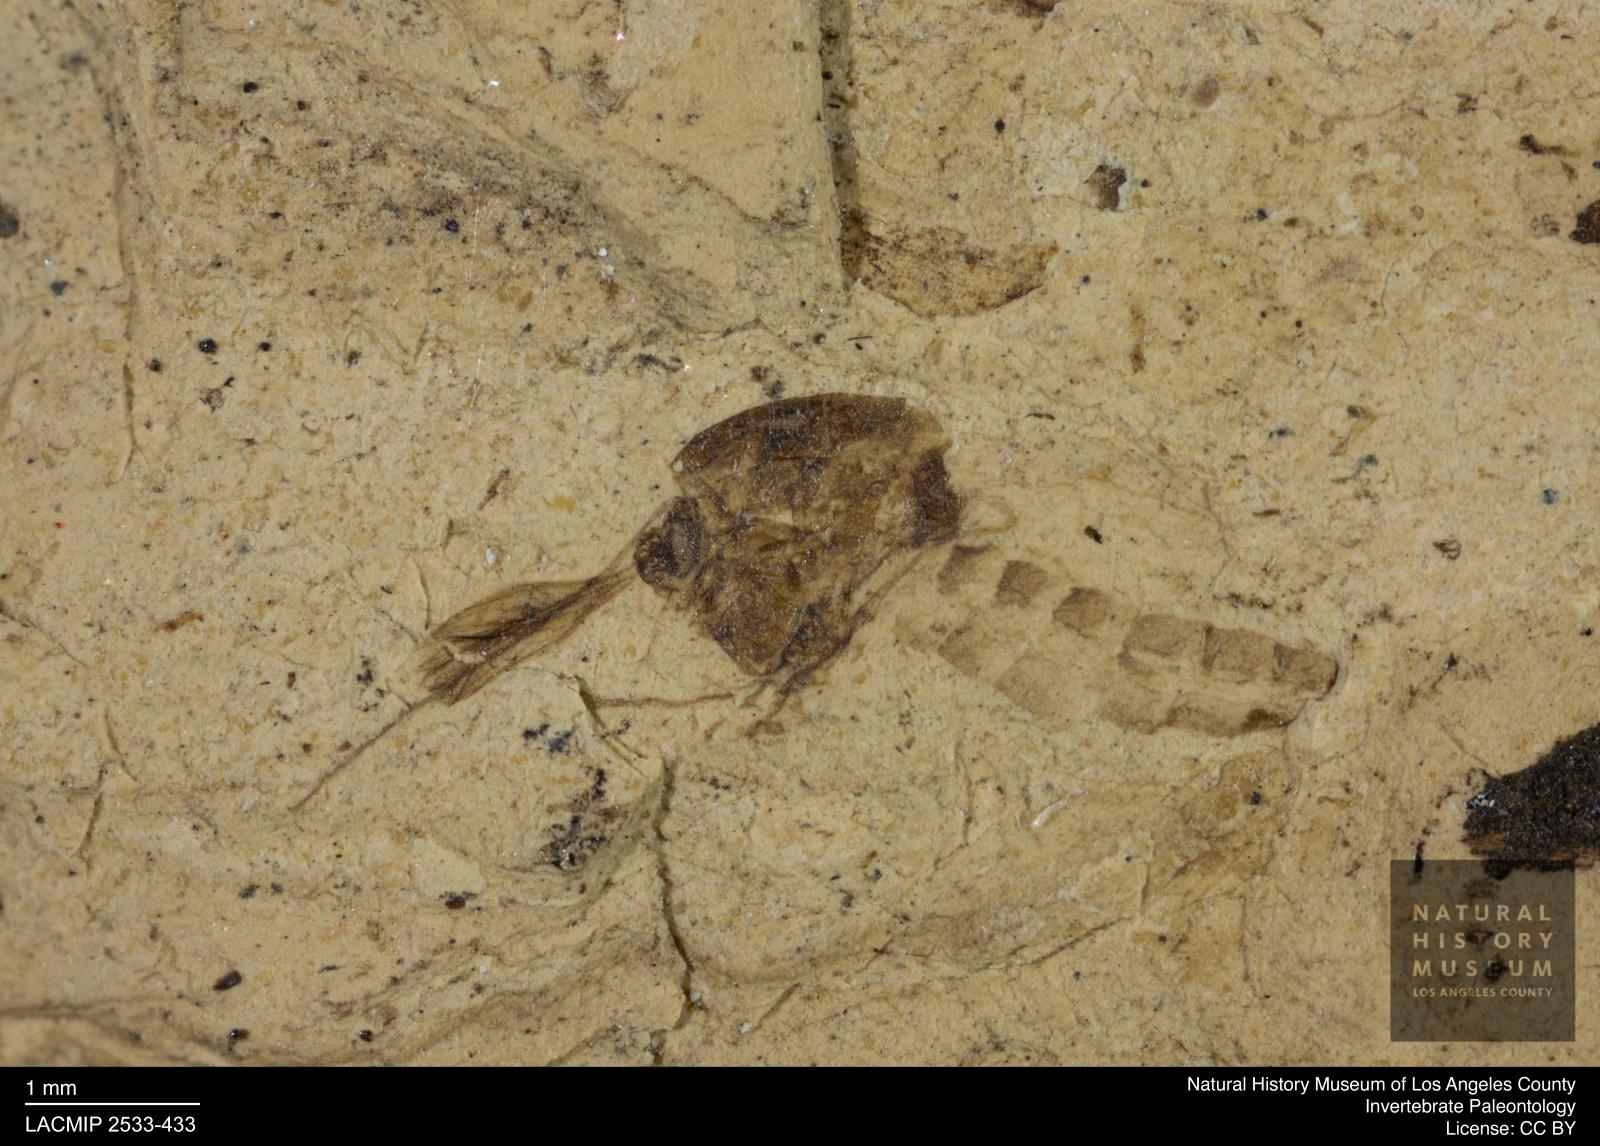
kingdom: Animalia
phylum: Arthropoda
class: Insecta
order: Diptera
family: Chironomidae
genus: Tanypus
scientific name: Tanypus thienemanni
